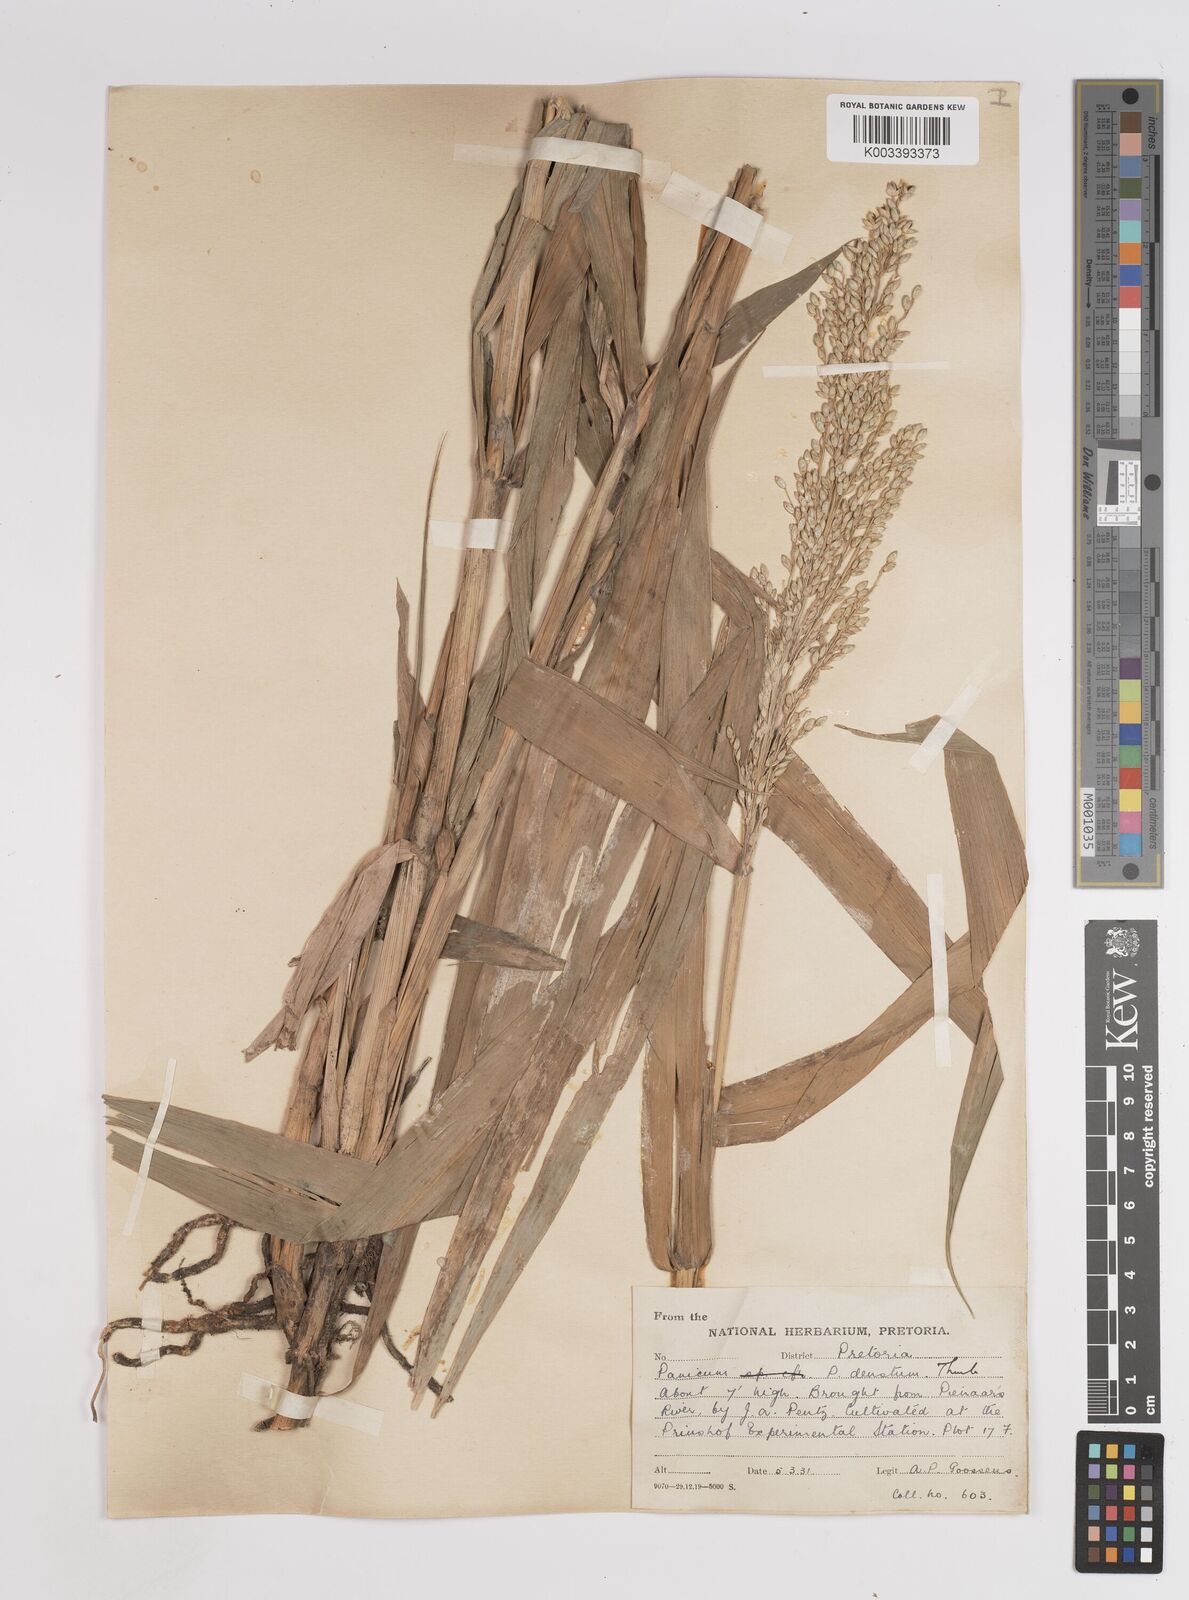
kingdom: Plantae
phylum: Tracheophyta
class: Liliopsida
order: Poales
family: Poaceae
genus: Panicum
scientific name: Panicum deustum
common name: Reed panicum
